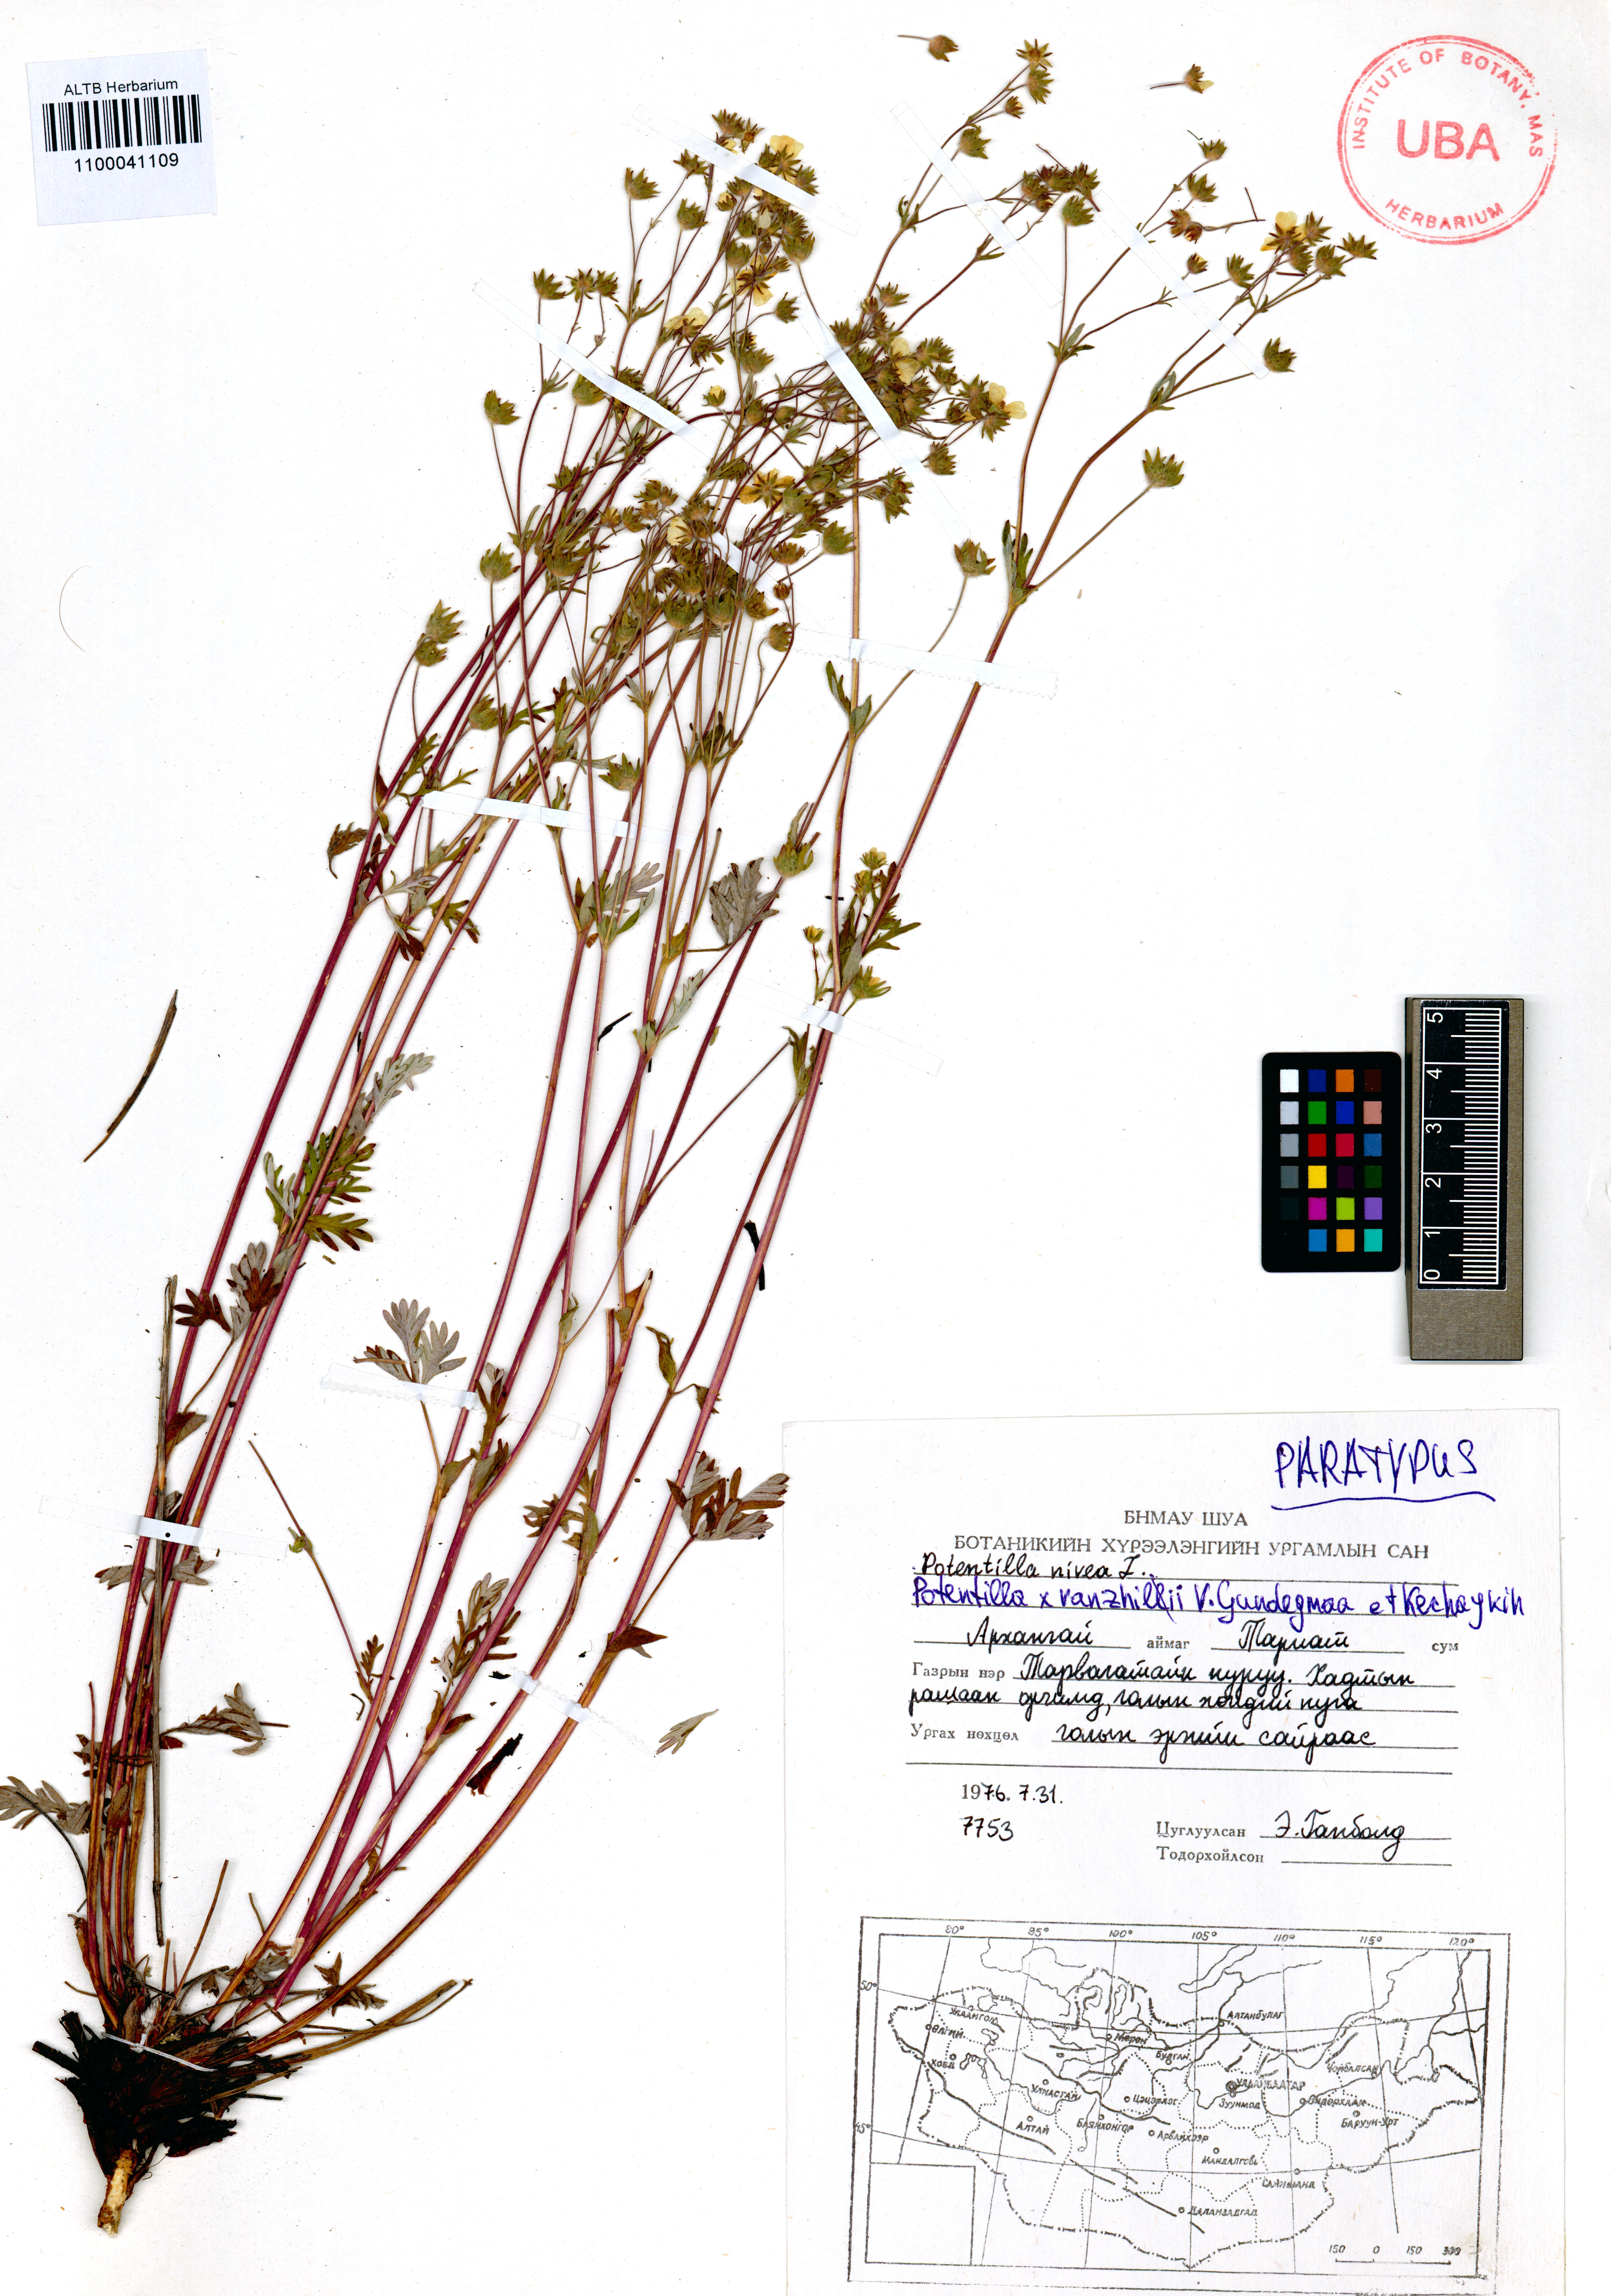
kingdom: Plantae
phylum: Tracheophyta
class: Magnoliopsida
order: Rosales
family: Rosaceae
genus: Potentilla
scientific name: Potentilla vanzhilii
